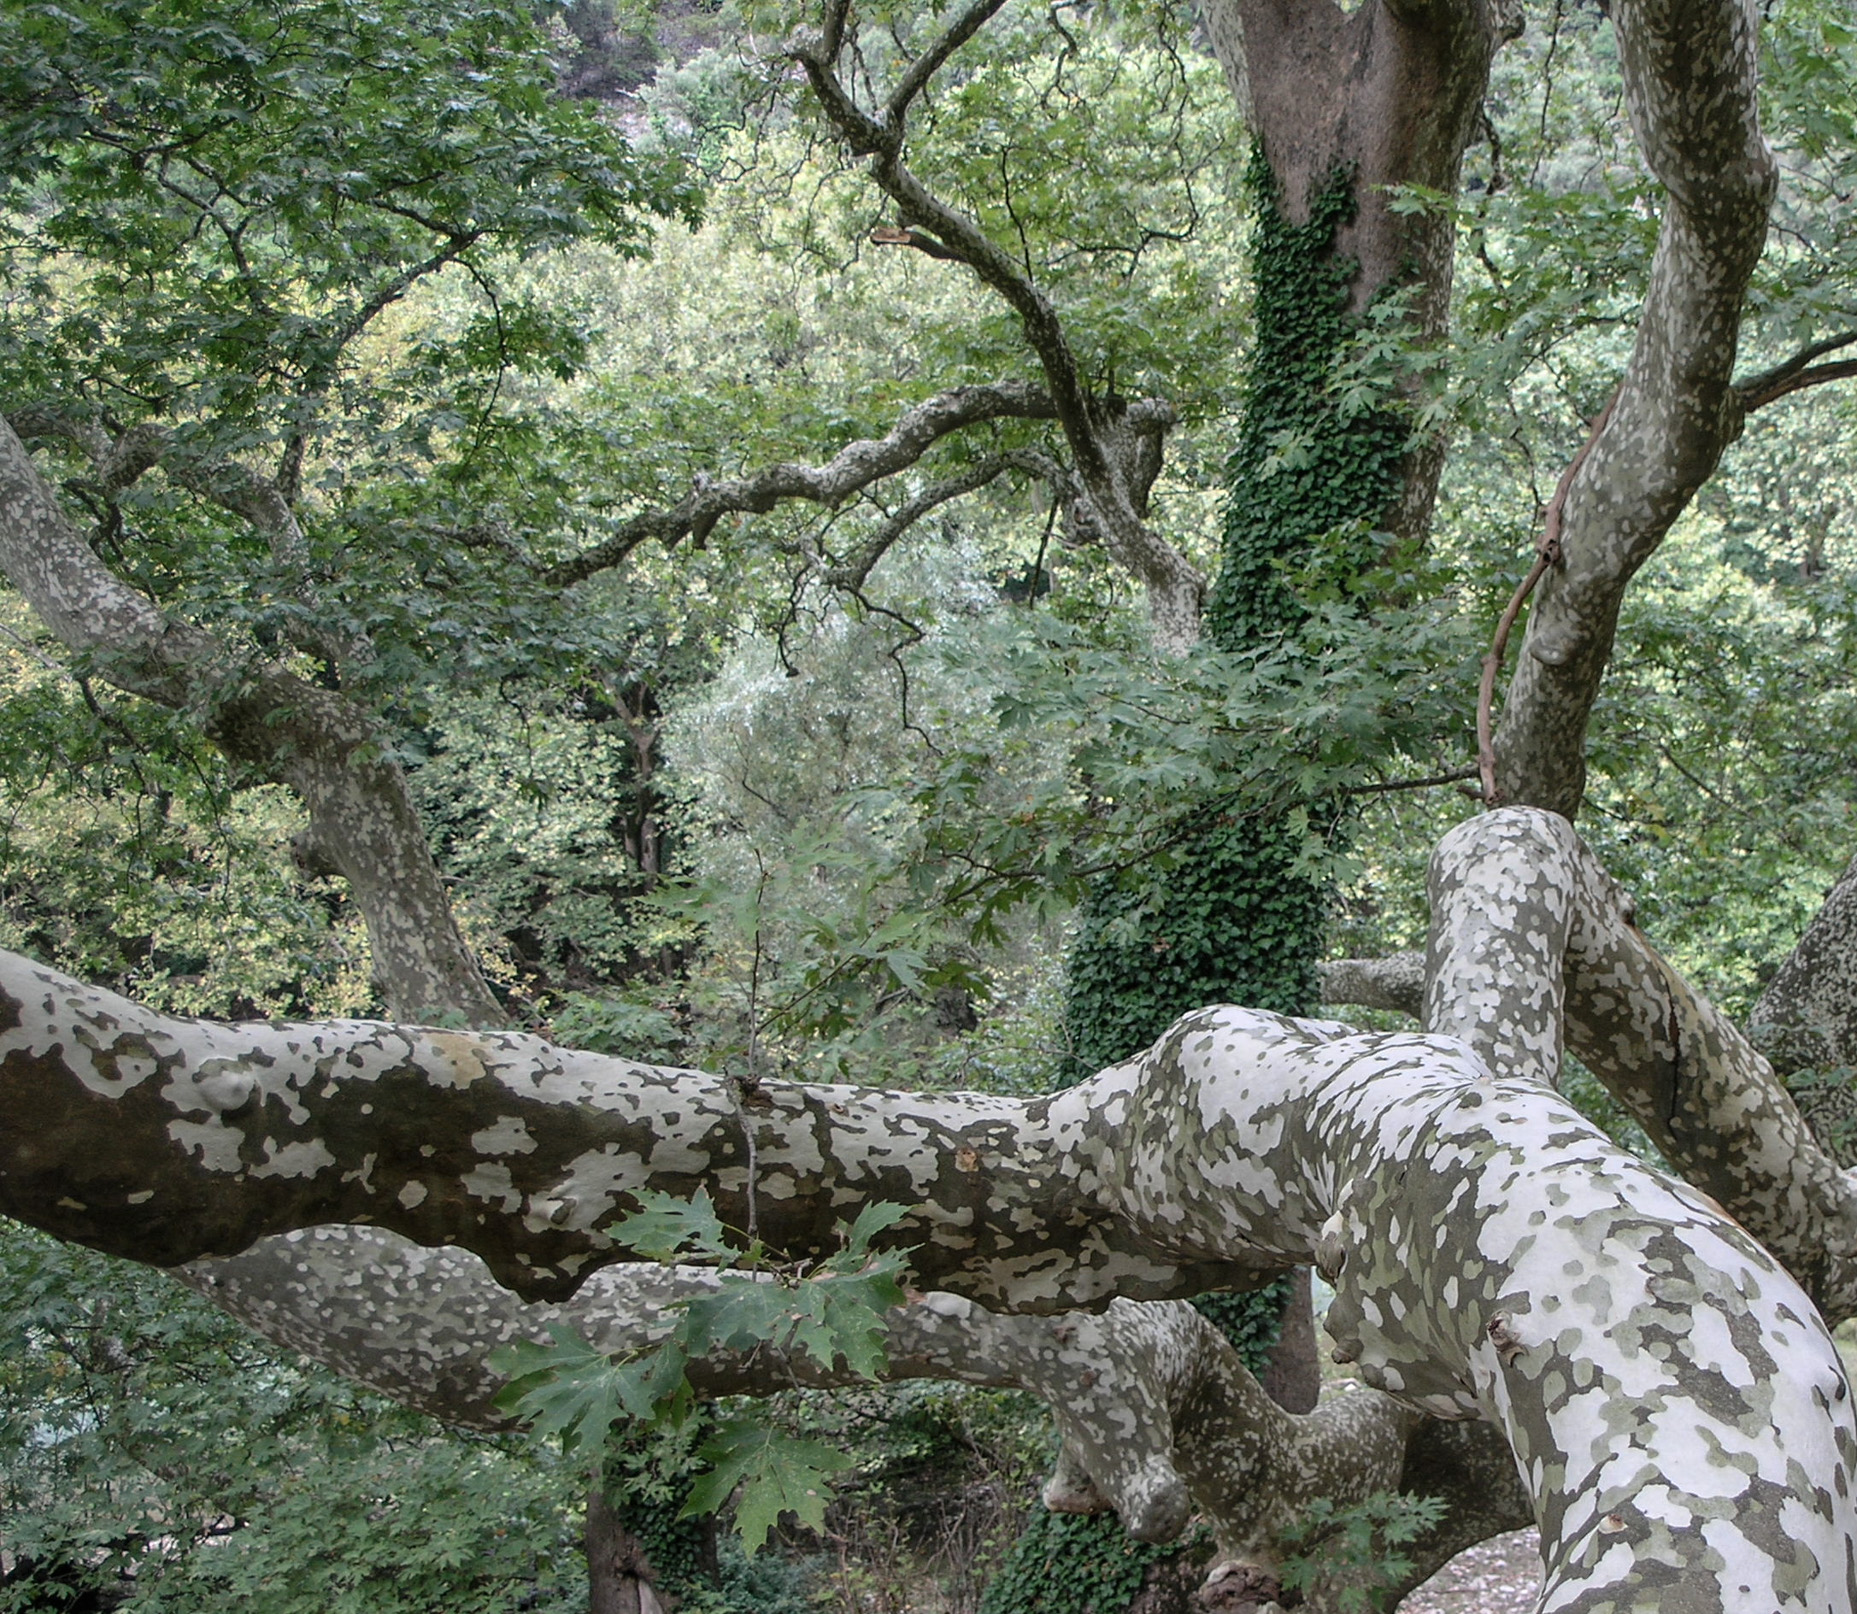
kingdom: Plantae
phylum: Tracheophyta
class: Magnoliopsida
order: Proteales
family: Platanaceae
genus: Platanus
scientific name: Platanus orientalis
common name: Oriental plane
